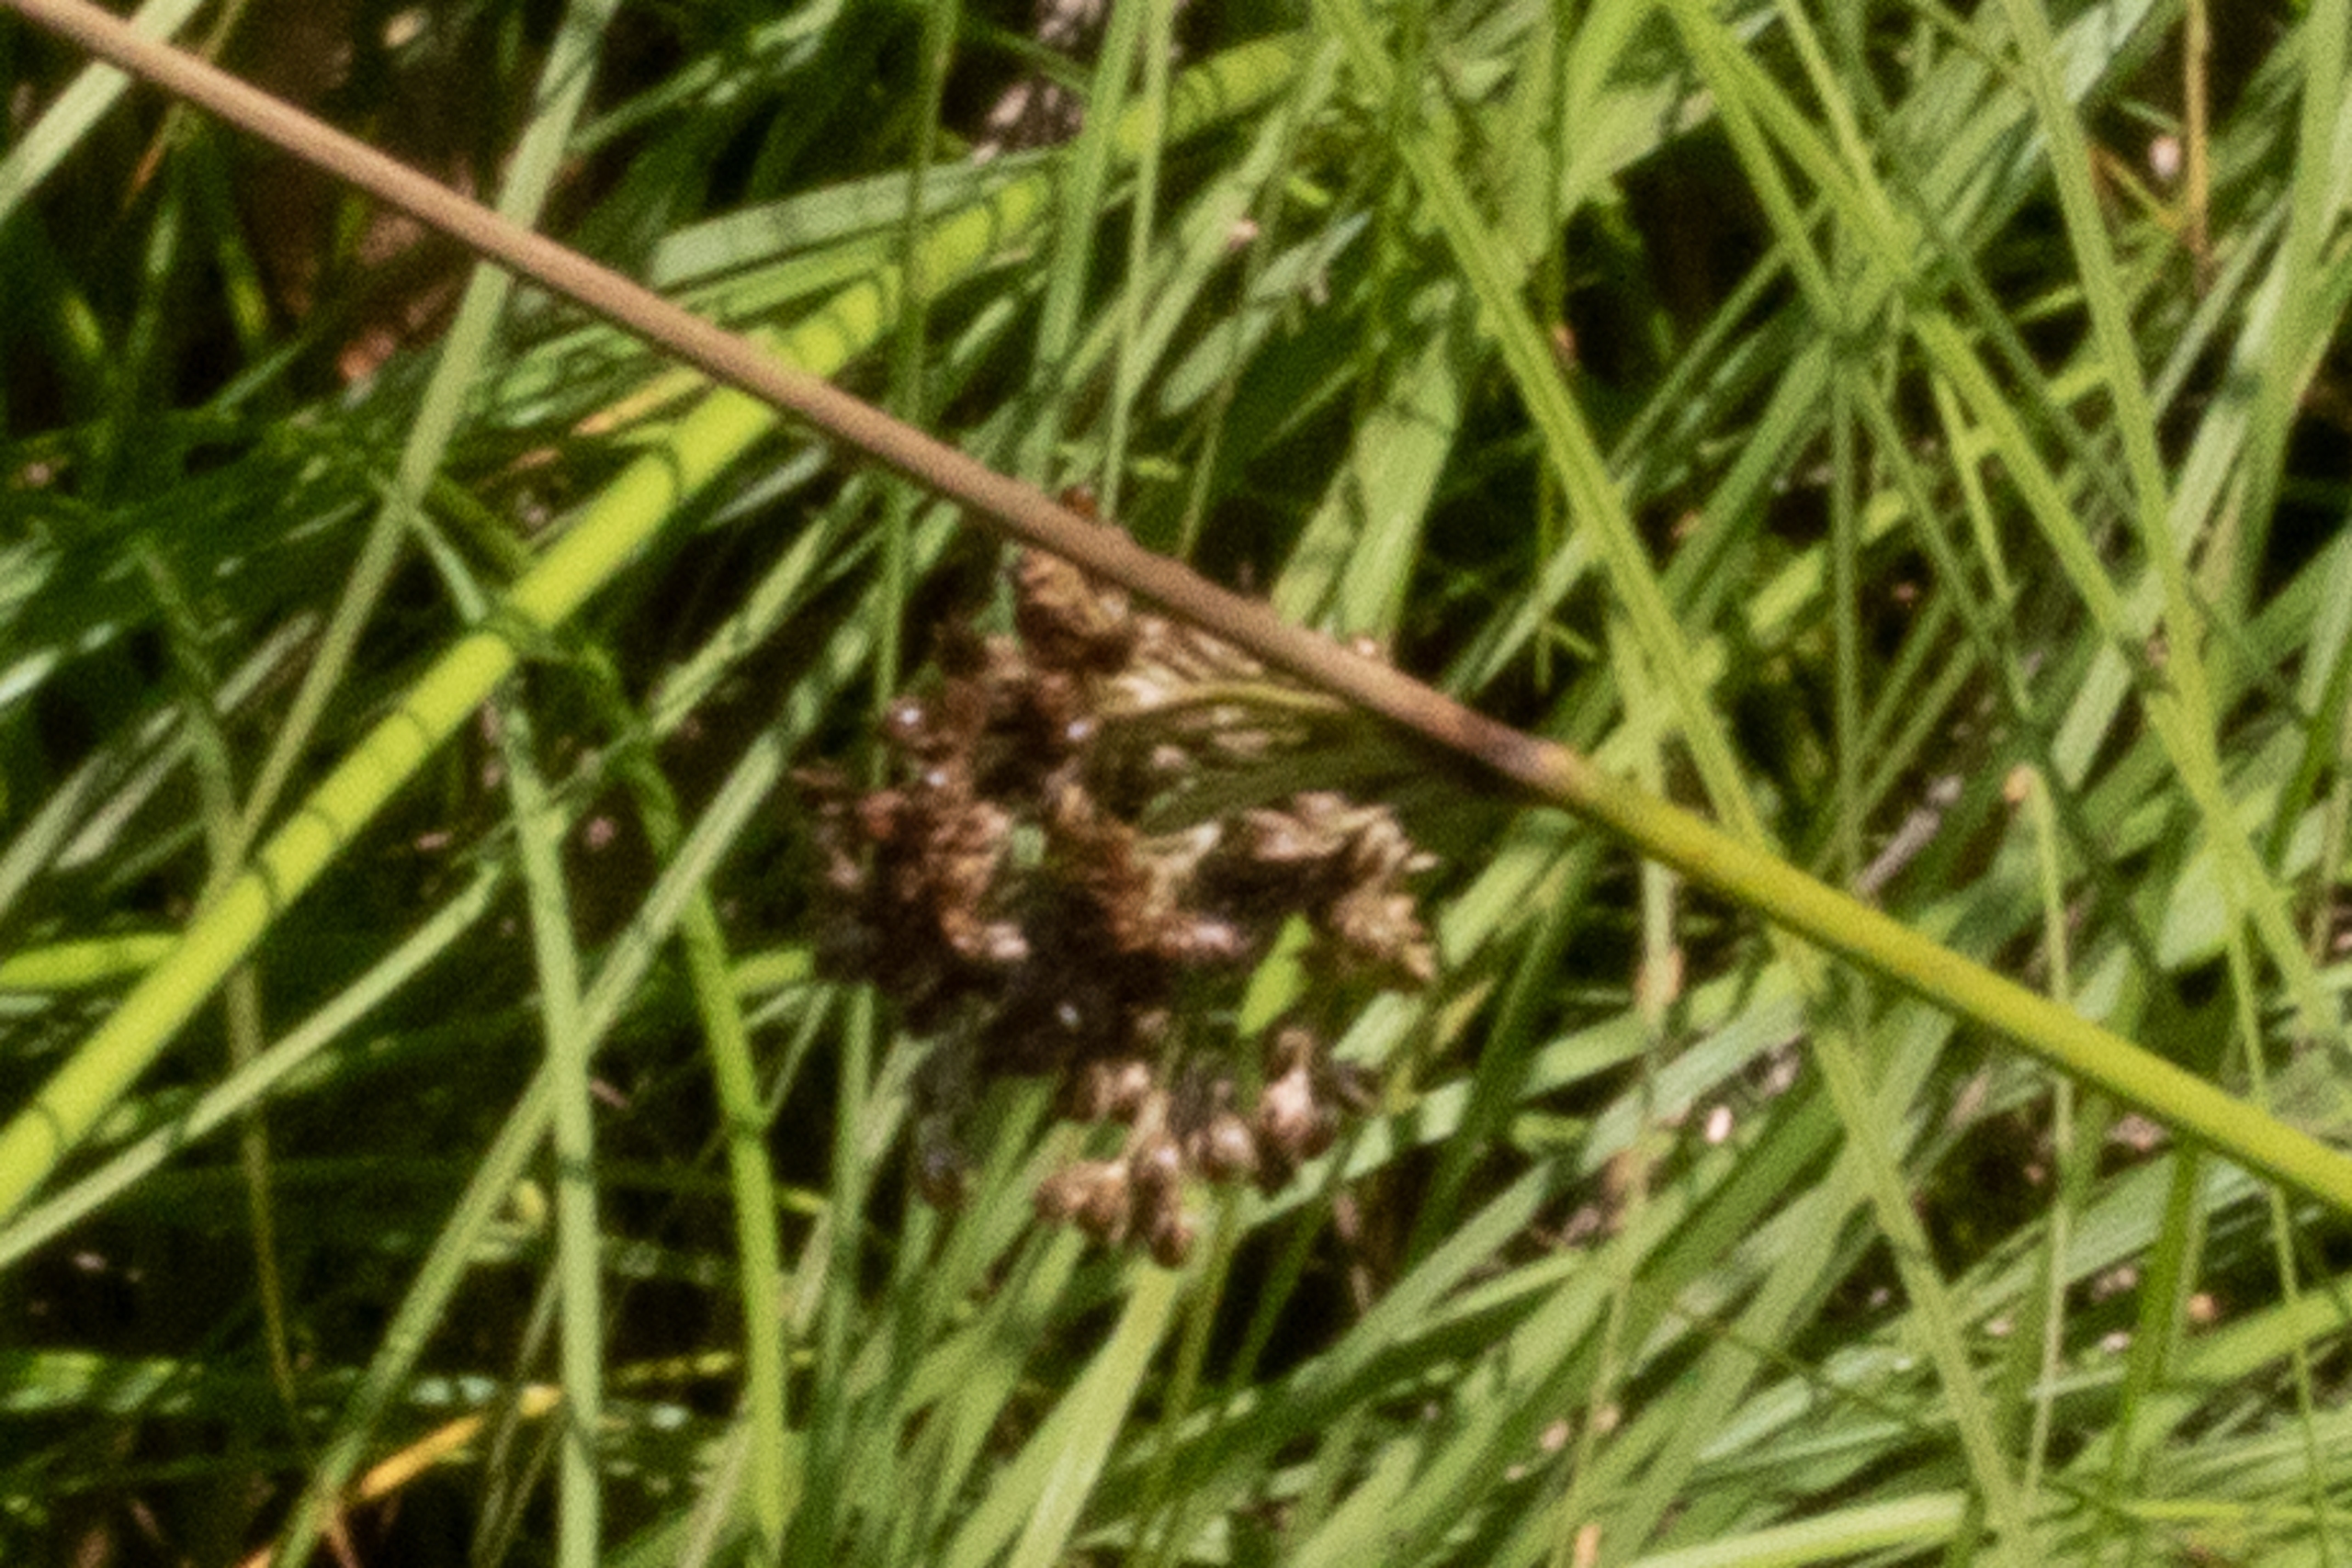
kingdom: Plantae
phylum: Tracheophyta
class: Liliopsida
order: Poales
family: Juncaceae
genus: Juncus
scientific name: Juncus effusus
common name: Lyse-siv
